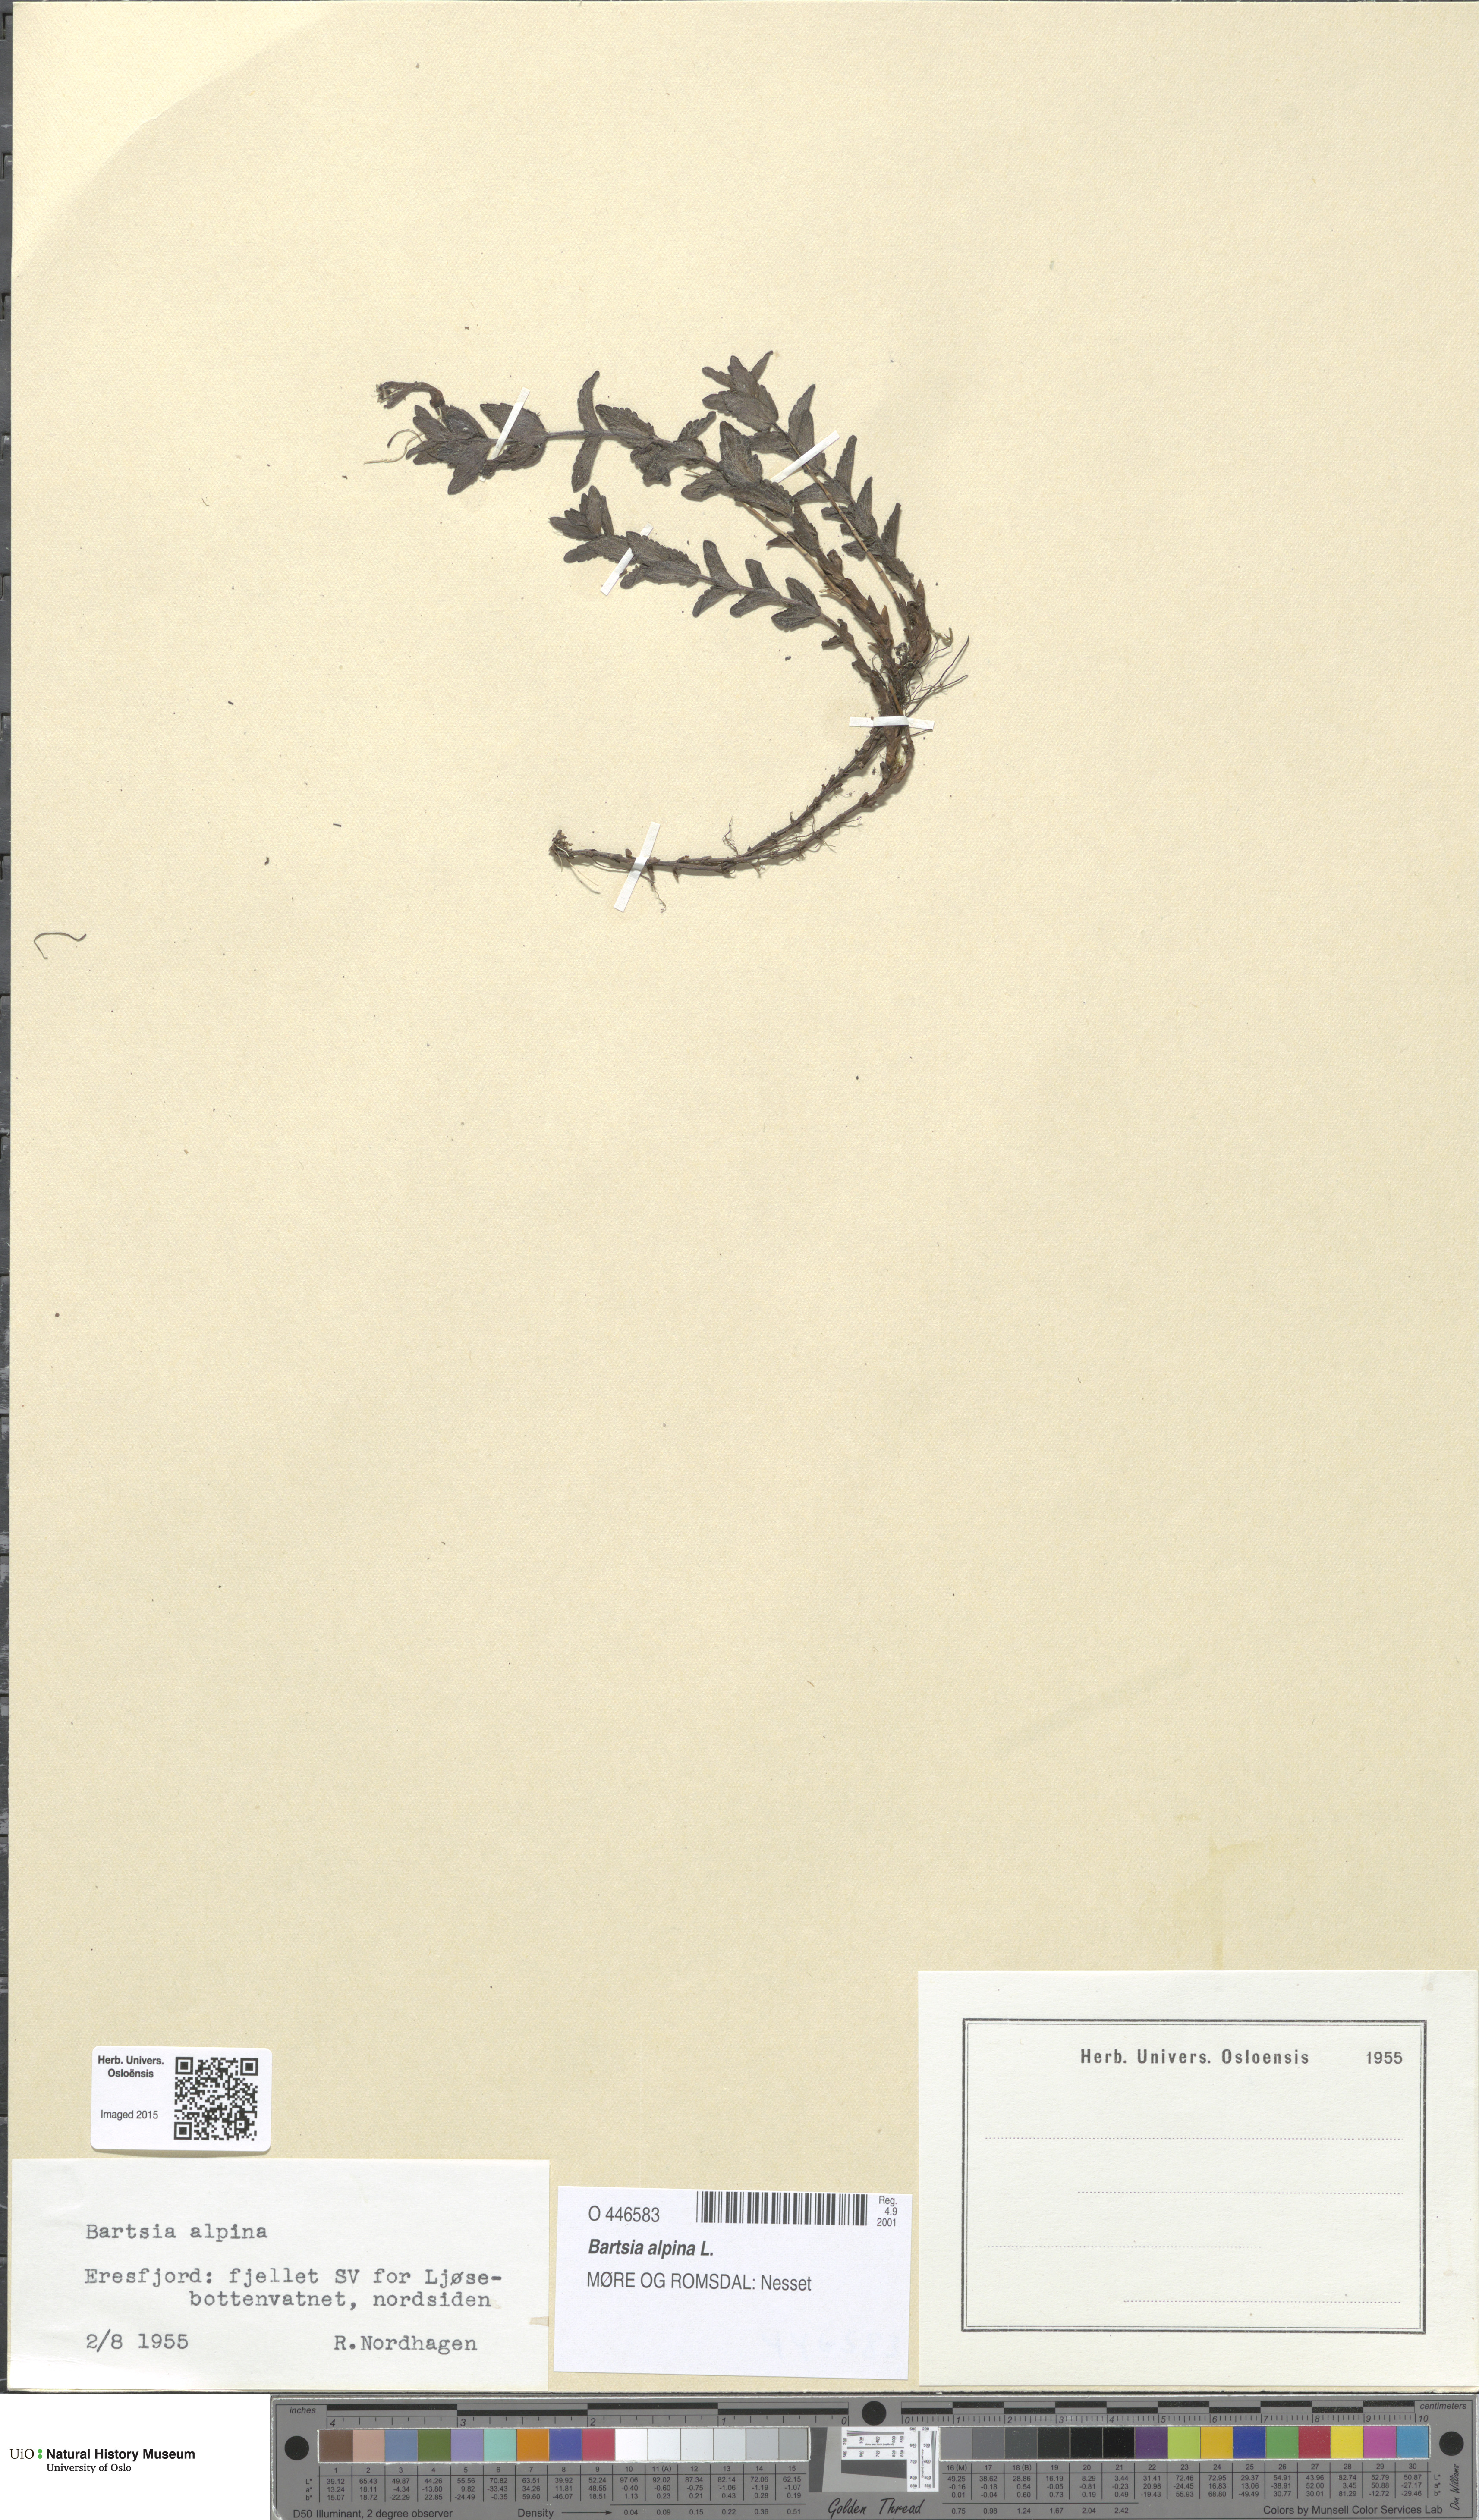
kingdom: Plantae
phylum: Tracheophyta
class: Magnoliopsida
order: Lamiales
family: Orobanchaceae
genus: Bartsia
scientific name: Bartsia alpina
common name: Alpine bartsia
